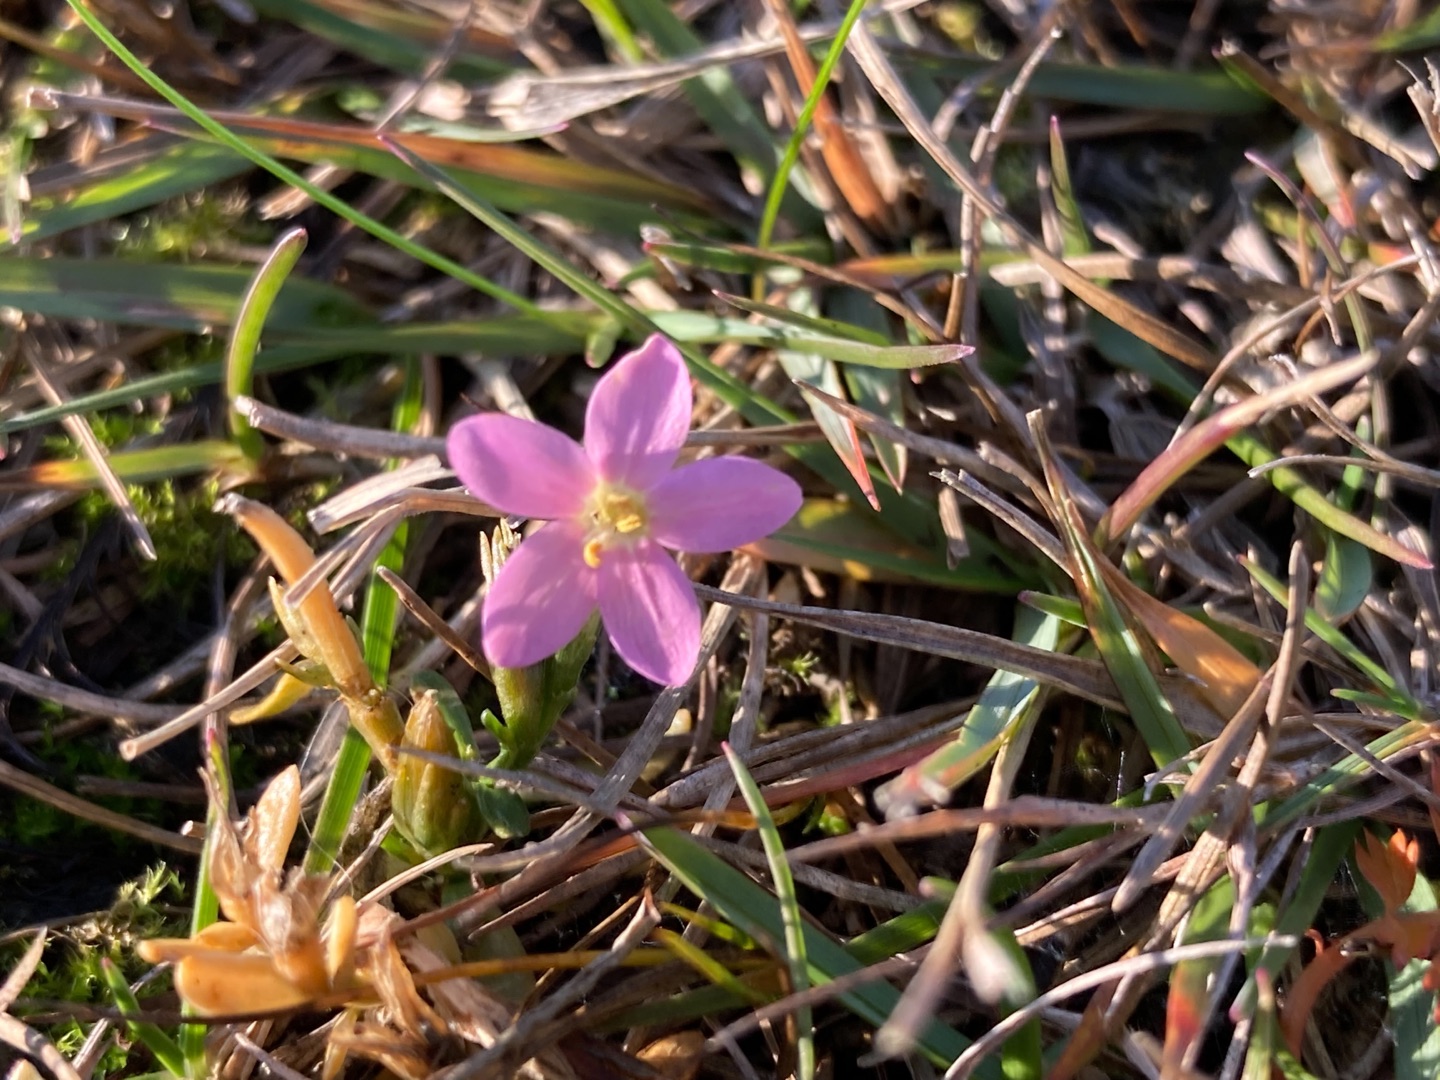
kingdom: Plantae
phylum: Tracheophyta
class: Magnoliopsida
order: Gentianales
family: Gentianaceae
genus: Centaurium
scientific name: Centaurium erythraea
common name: Mark-tusindgylden
